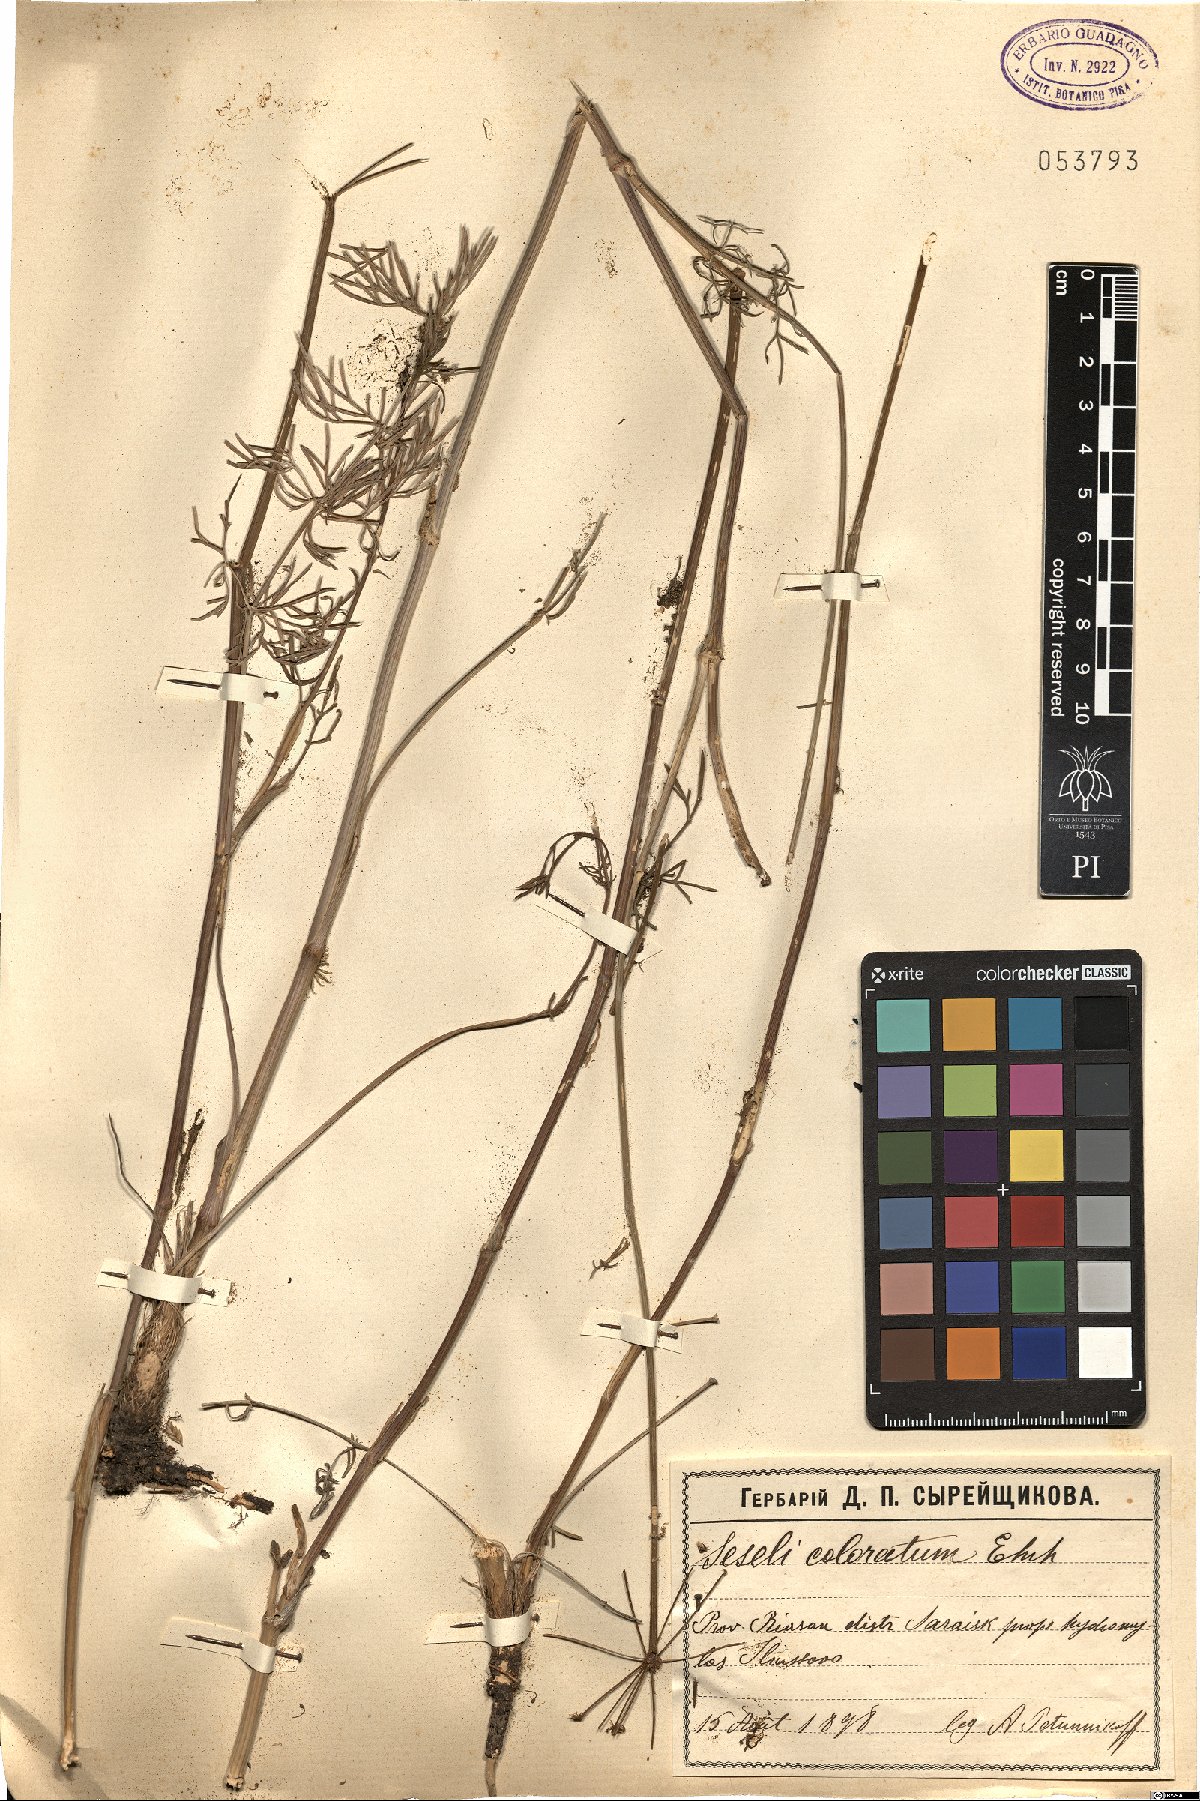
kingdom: Plantae
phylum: Tracheophyta
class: Magnoliopsida
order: Apiales
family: Apiaceae
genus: Seseli
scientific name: Seseli annuum
